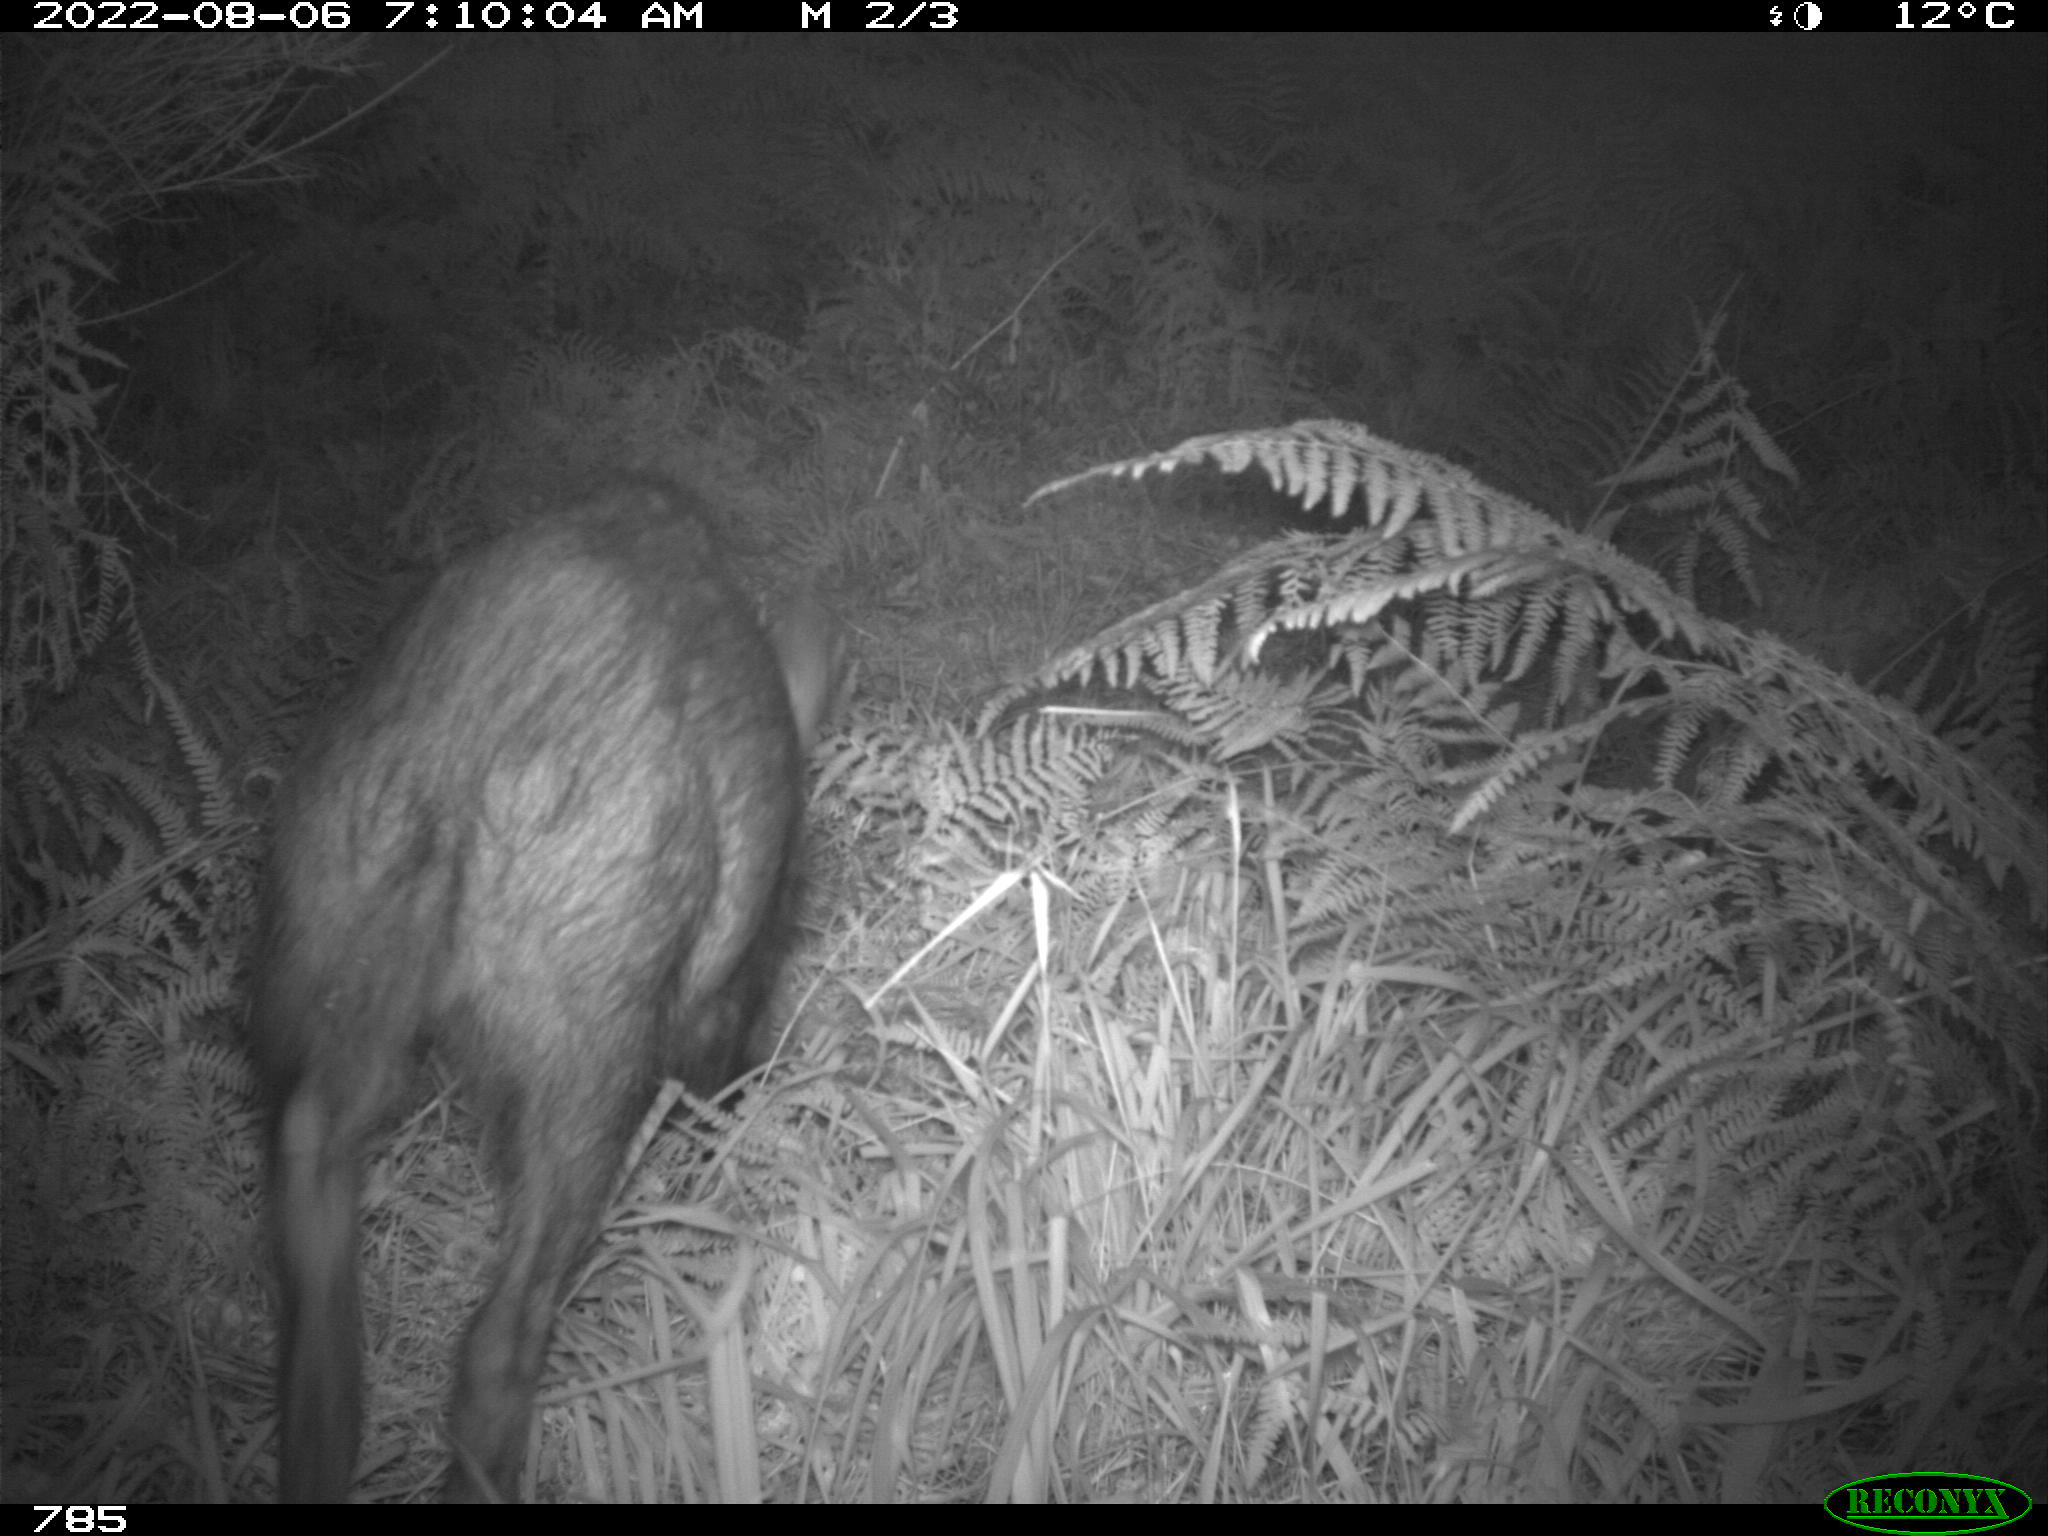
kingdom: Animalia
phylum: Chordata
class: Mammalia
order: Artiodactyla
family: Suidae
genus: Sus
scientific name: Sus scrofa
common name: Wild boar
